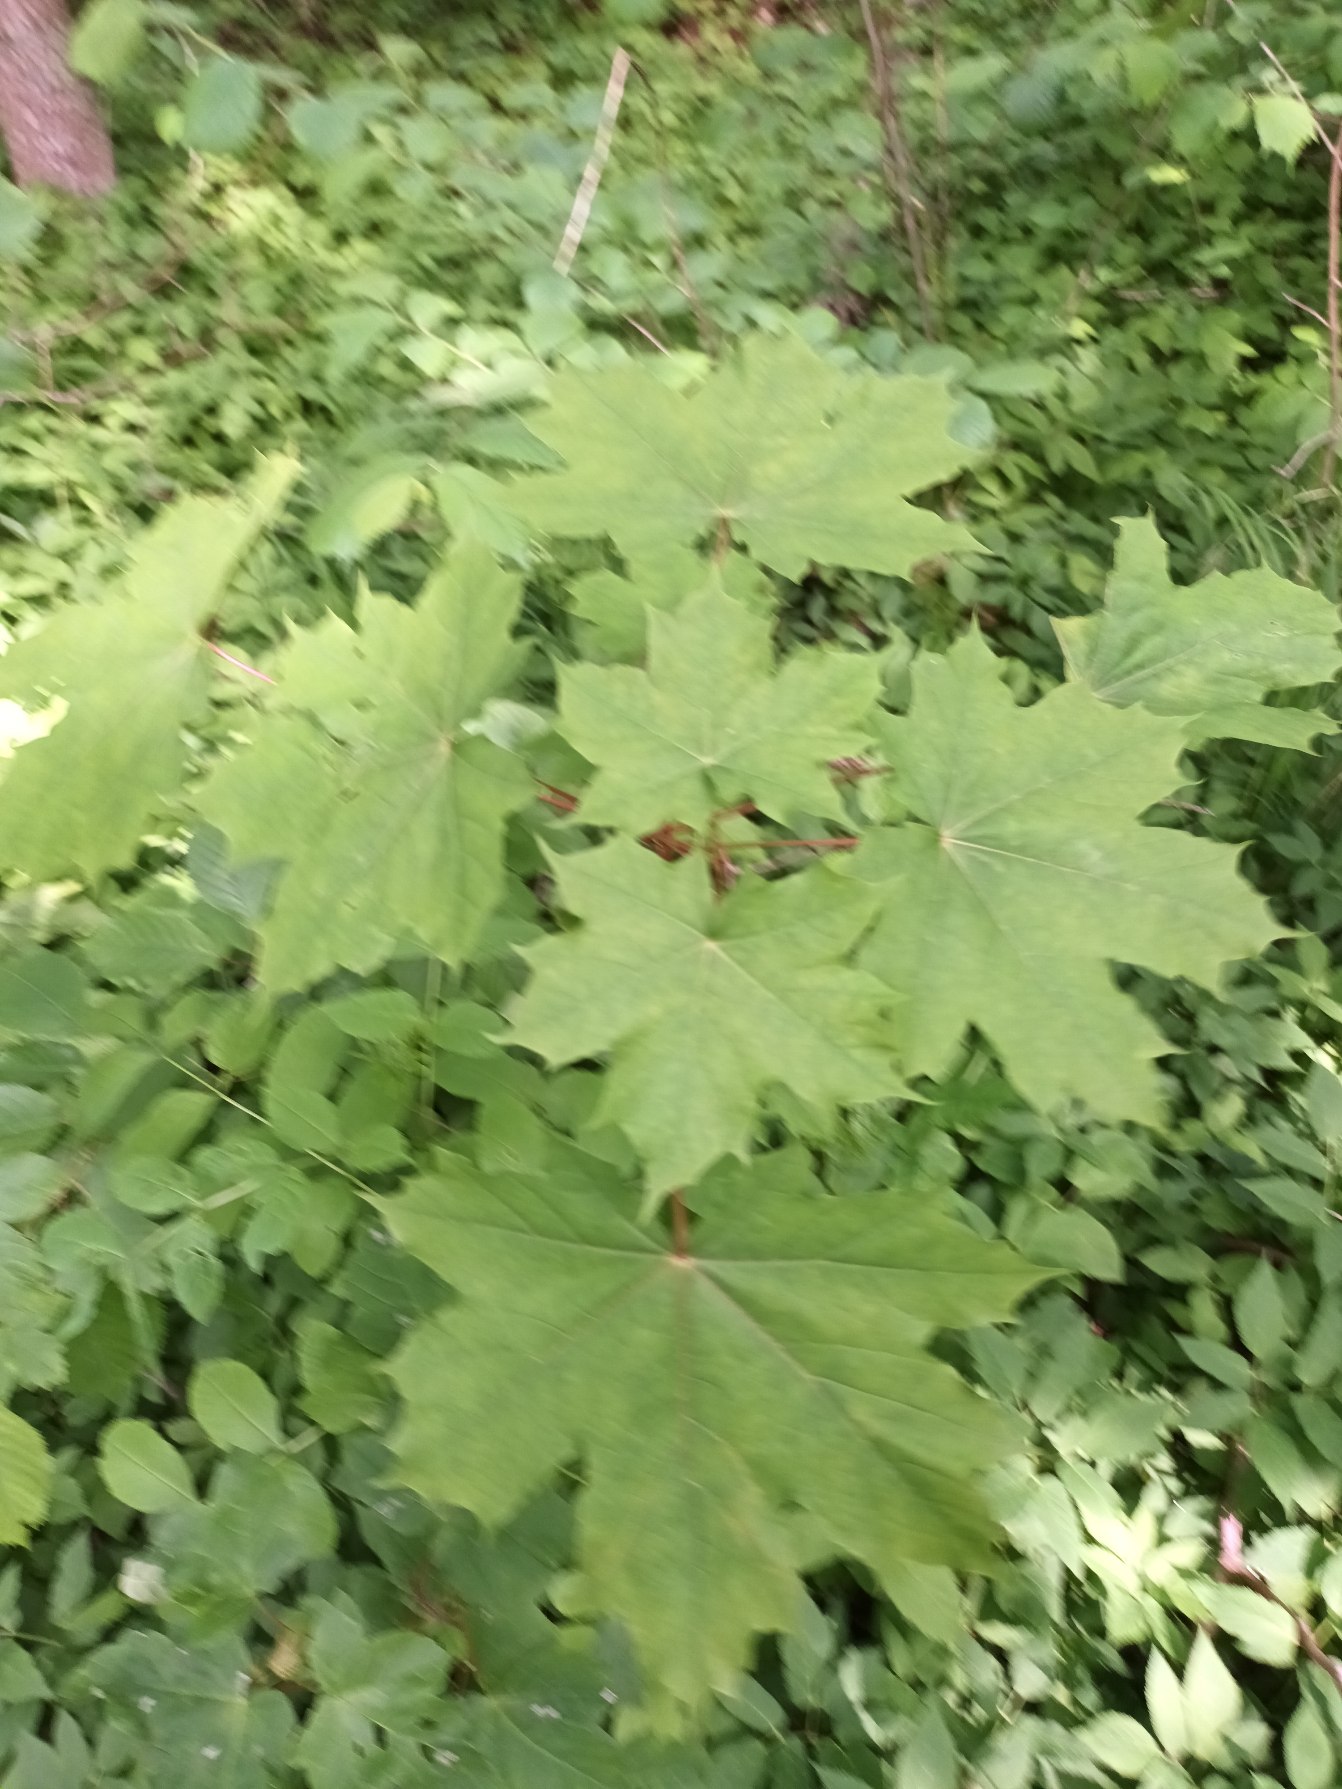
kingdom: Plantae
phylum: Tracheophyta
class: Magnoliopsida
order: Sapindales
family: Sapindaceae
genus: Acer
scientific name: Acer platanoides
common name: Spids-løn
